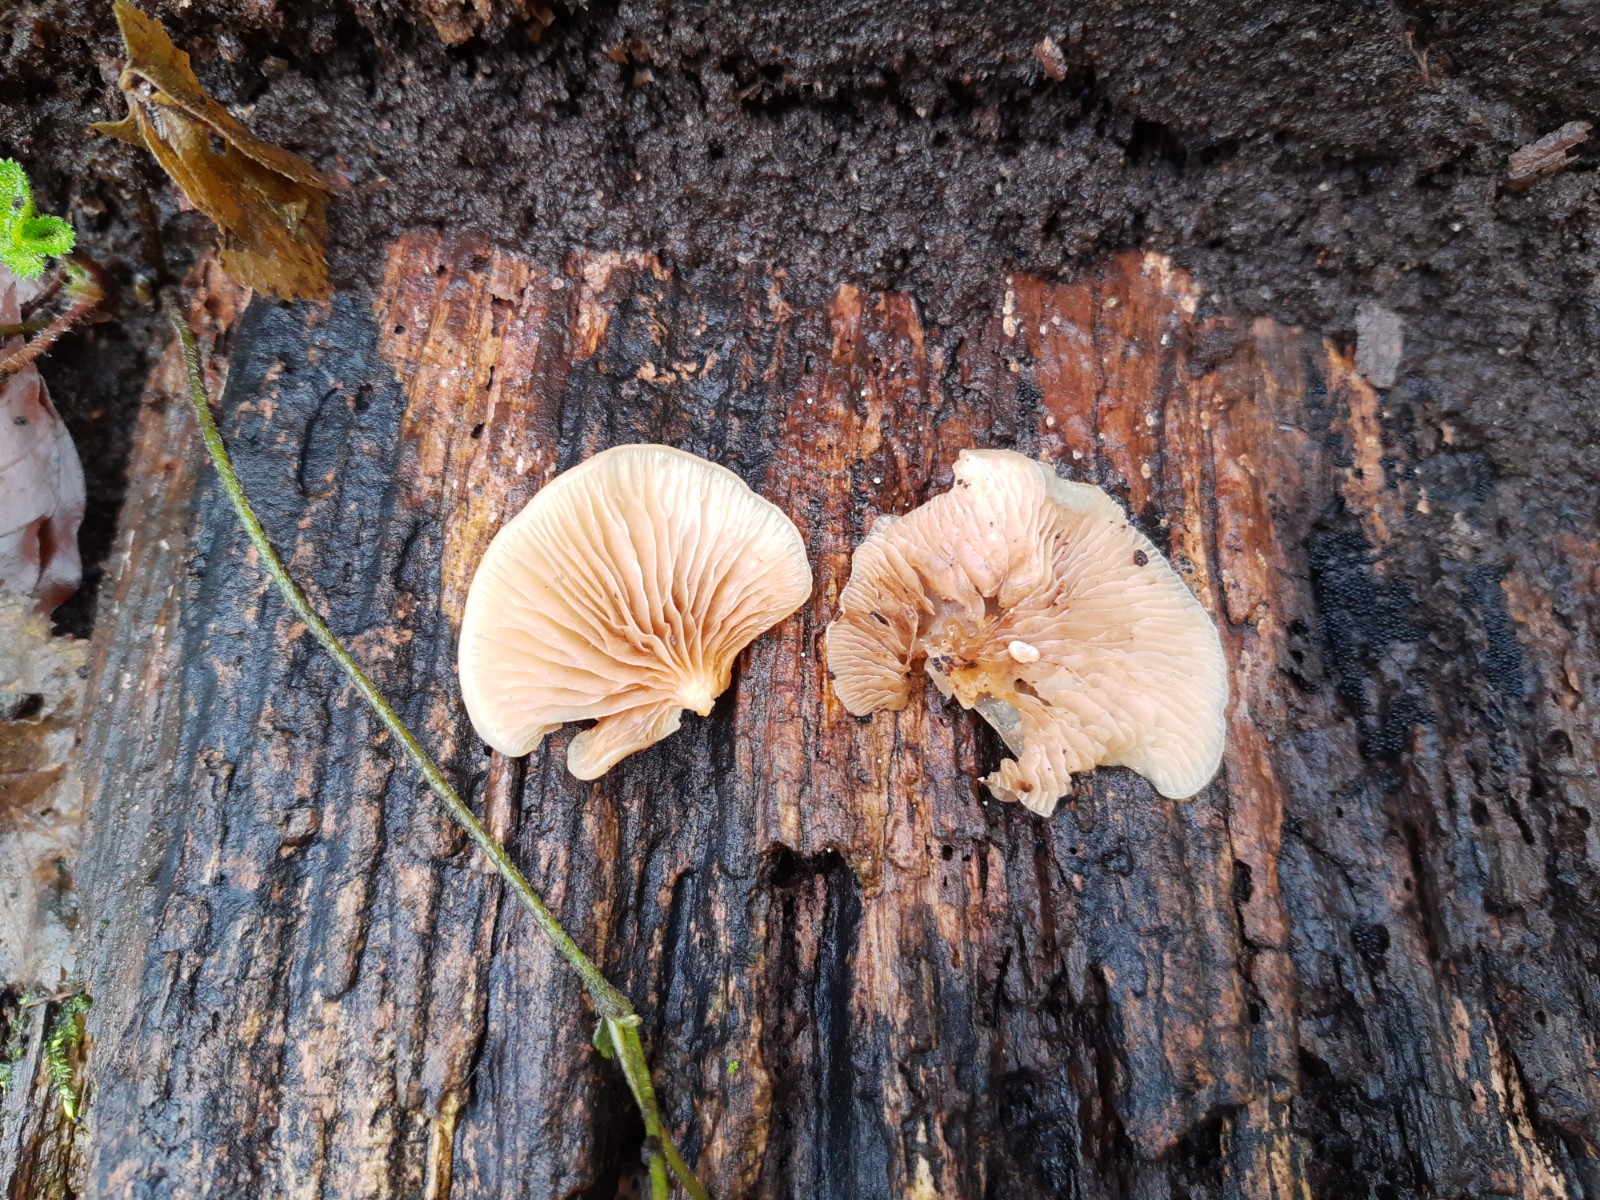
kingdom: Fungi
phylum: Basidiomycota
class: Agaricomycetes
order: Agaricales
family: Crepidotaceae
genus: Crepidotus
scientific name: Crepidotus mollis
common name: blød muslingesvamp
